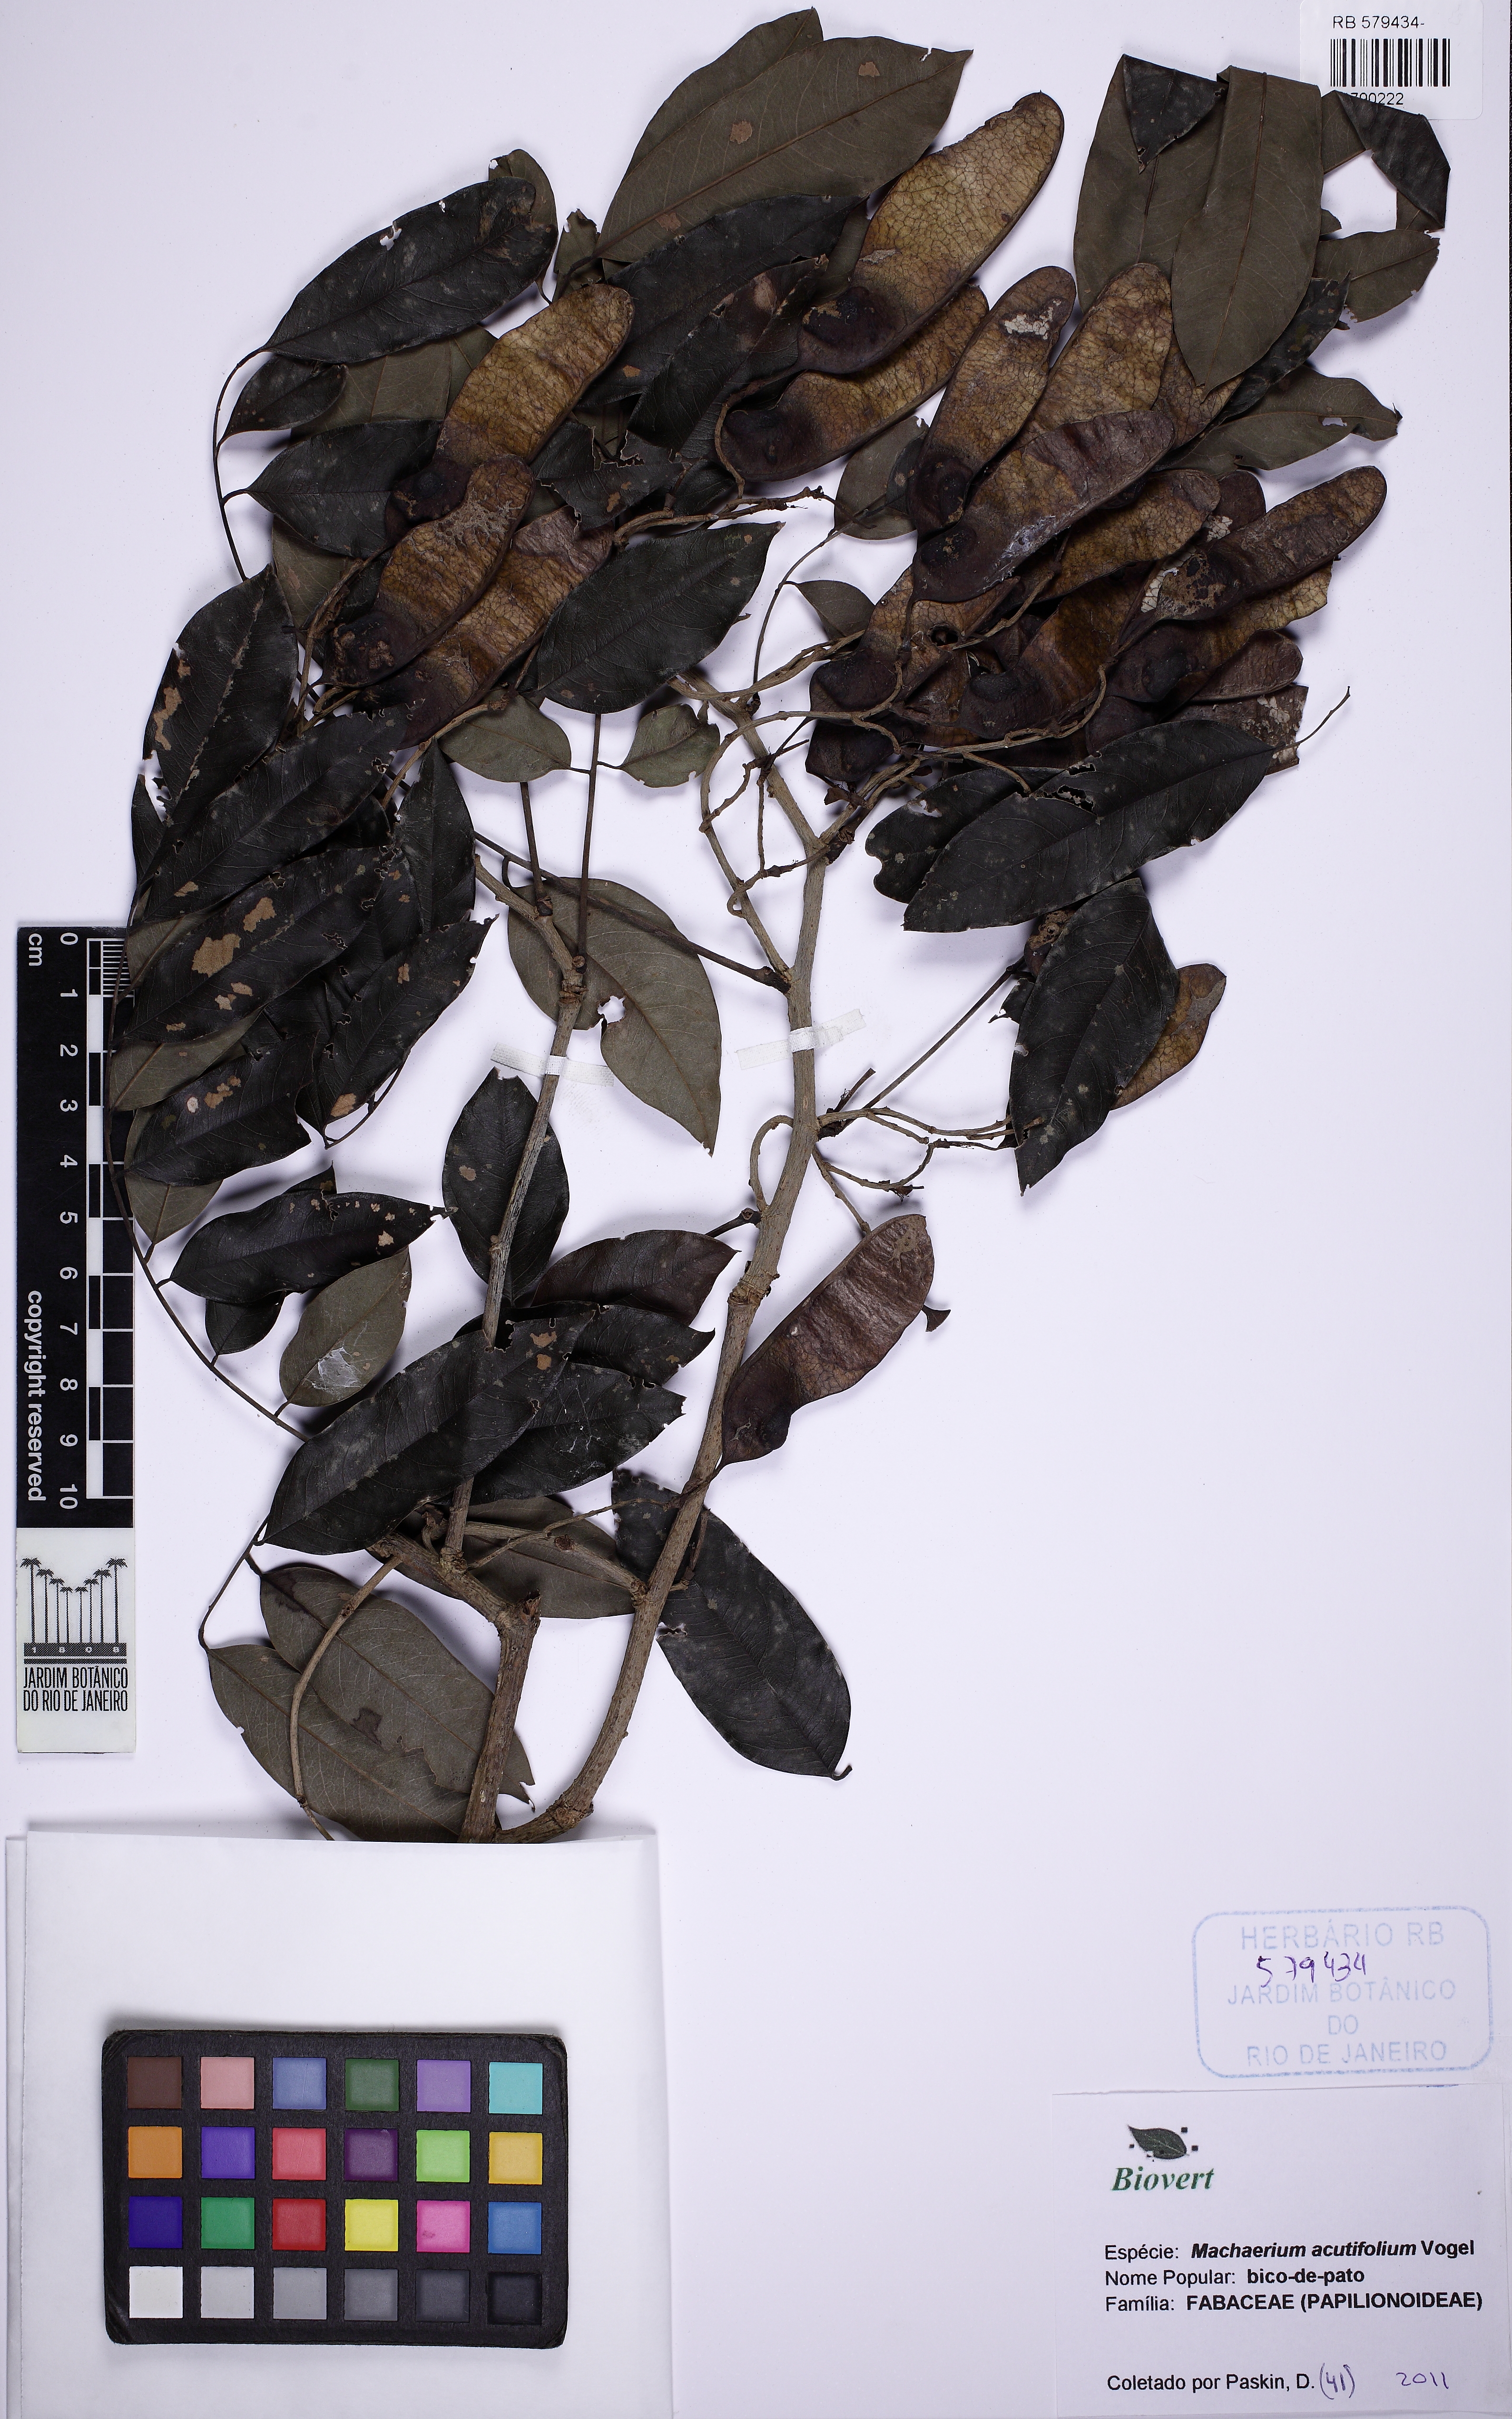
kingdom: Plantae
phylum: Tracheophyta
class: Magnoliopsida
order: Fabales
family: Fabaceae
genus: Machaerium
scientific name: Machaerium acutifolium
